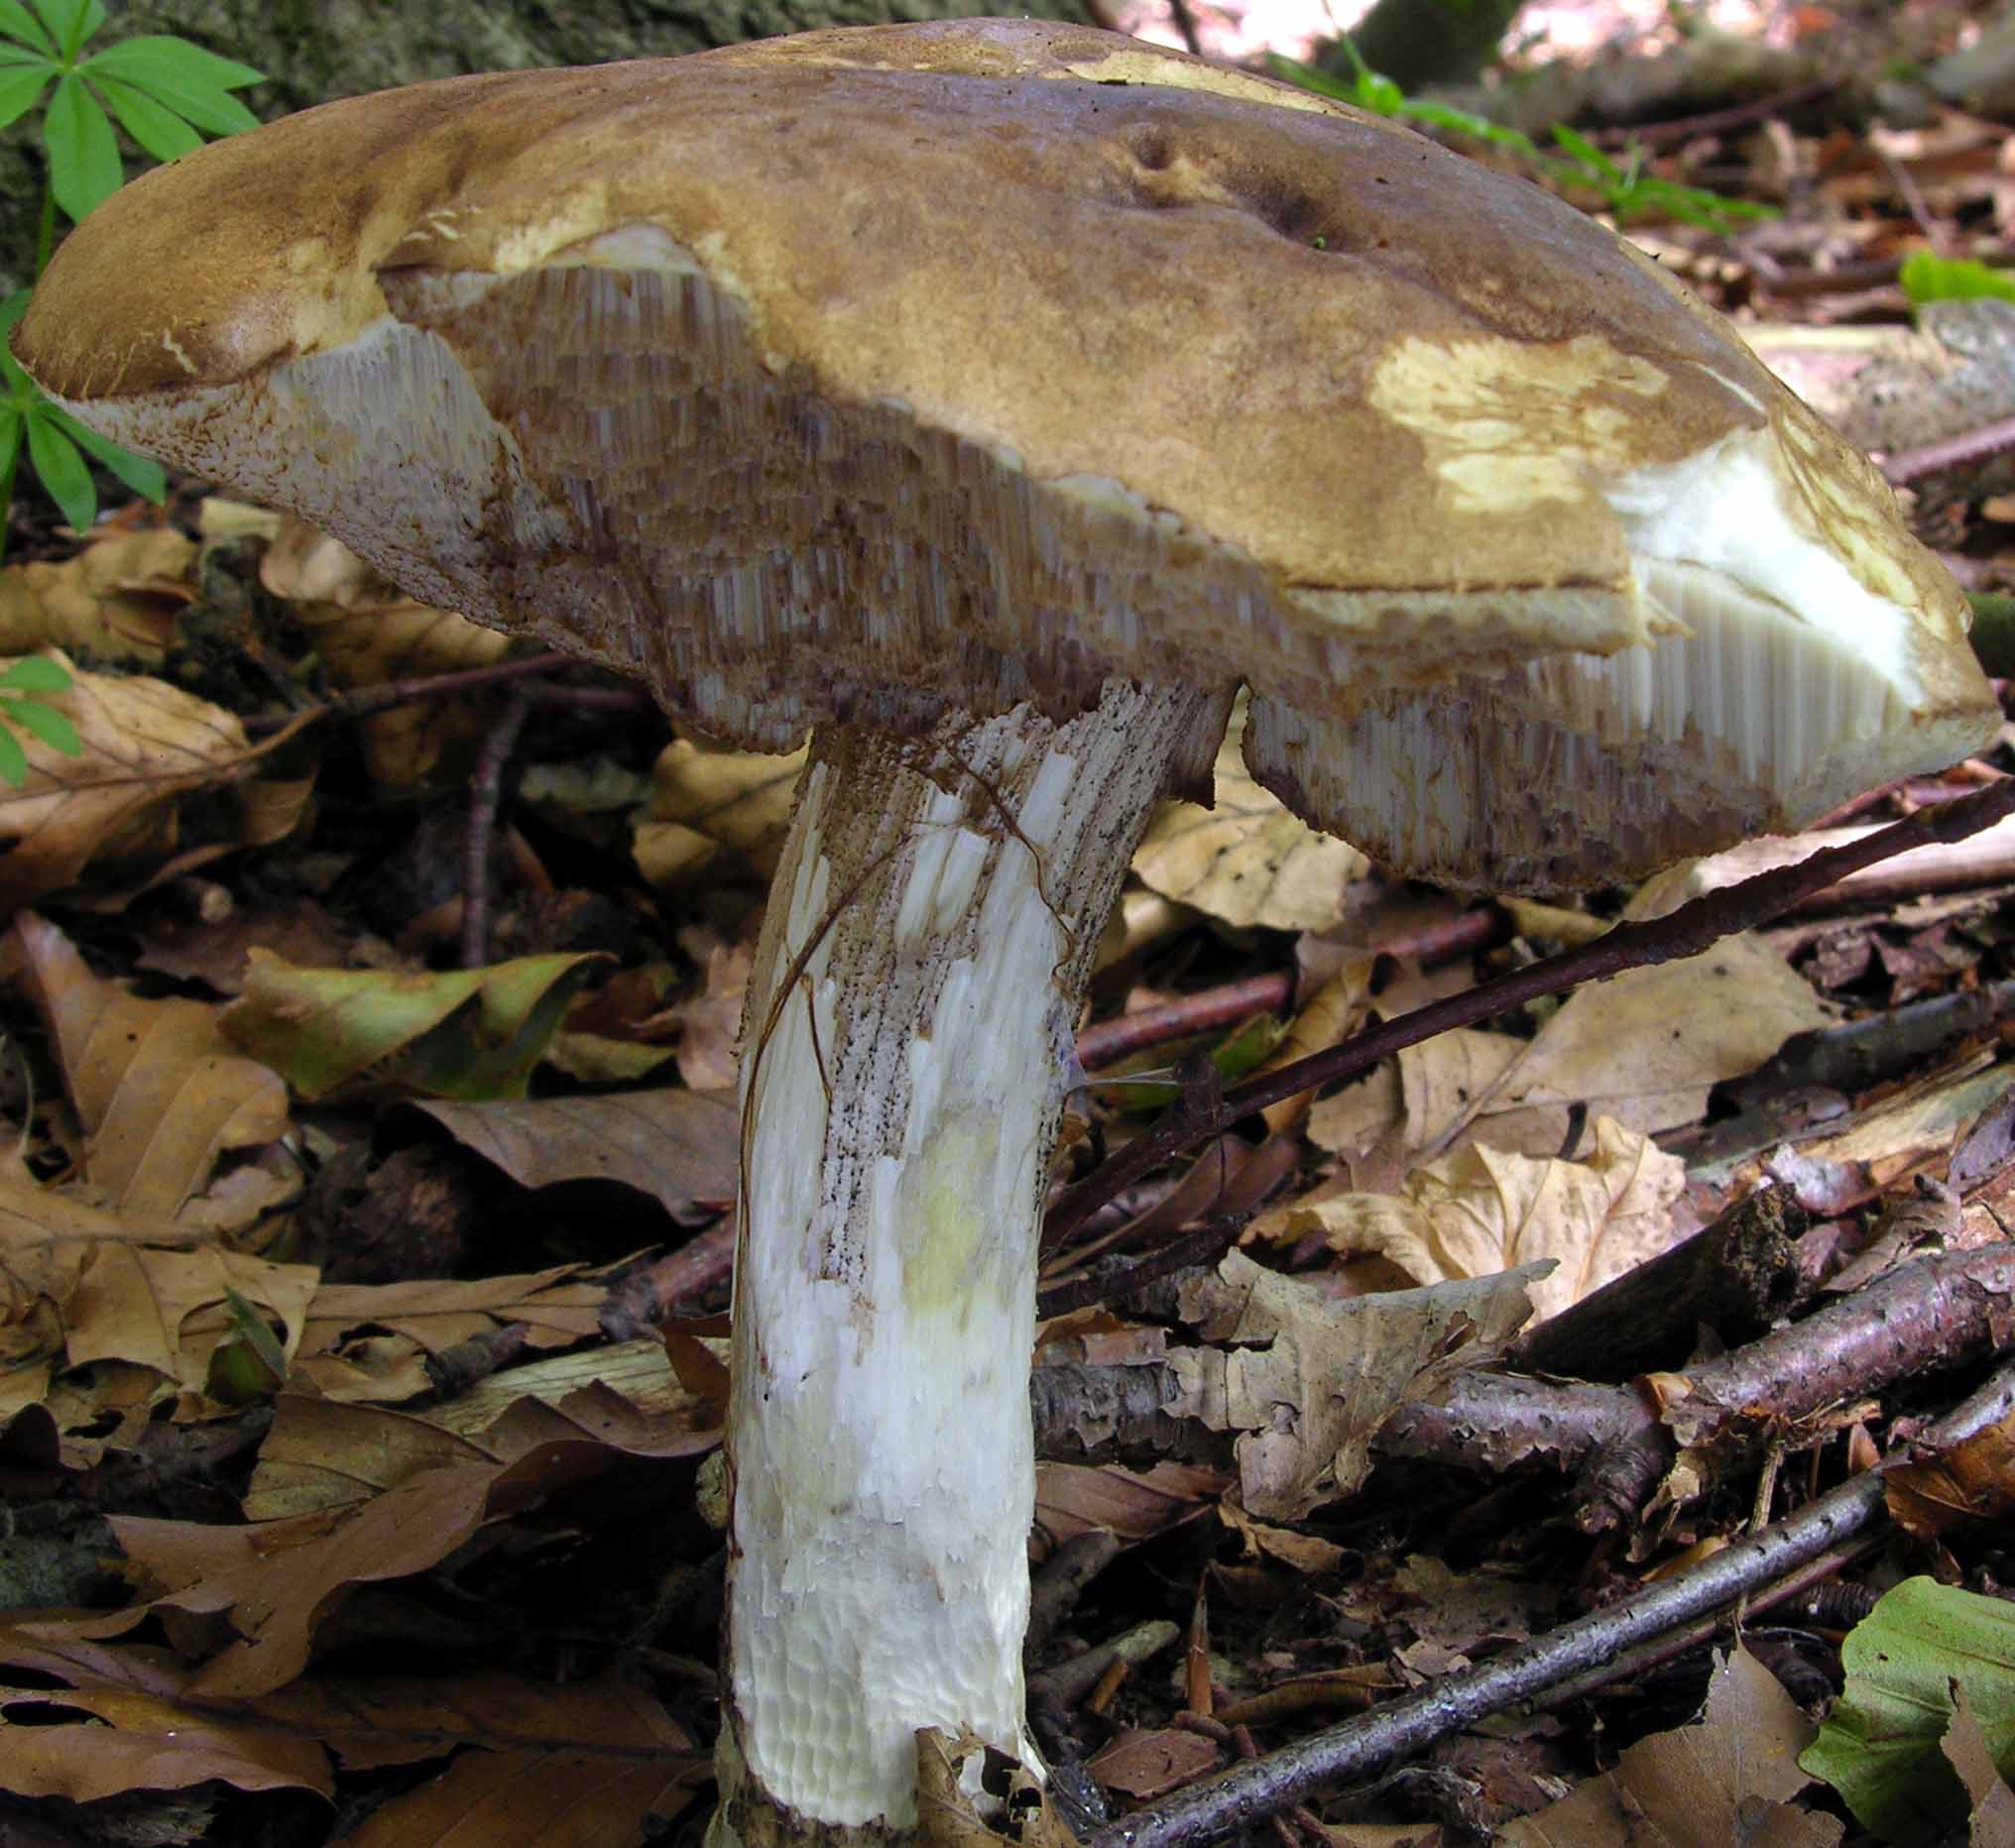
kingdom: Fungi
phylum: Basidiomycota
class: Agaricomycetes
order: Boletales
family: Boletaceae
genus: Leccinum
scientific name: Leccinum scabrum
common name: brun skælrørhat
